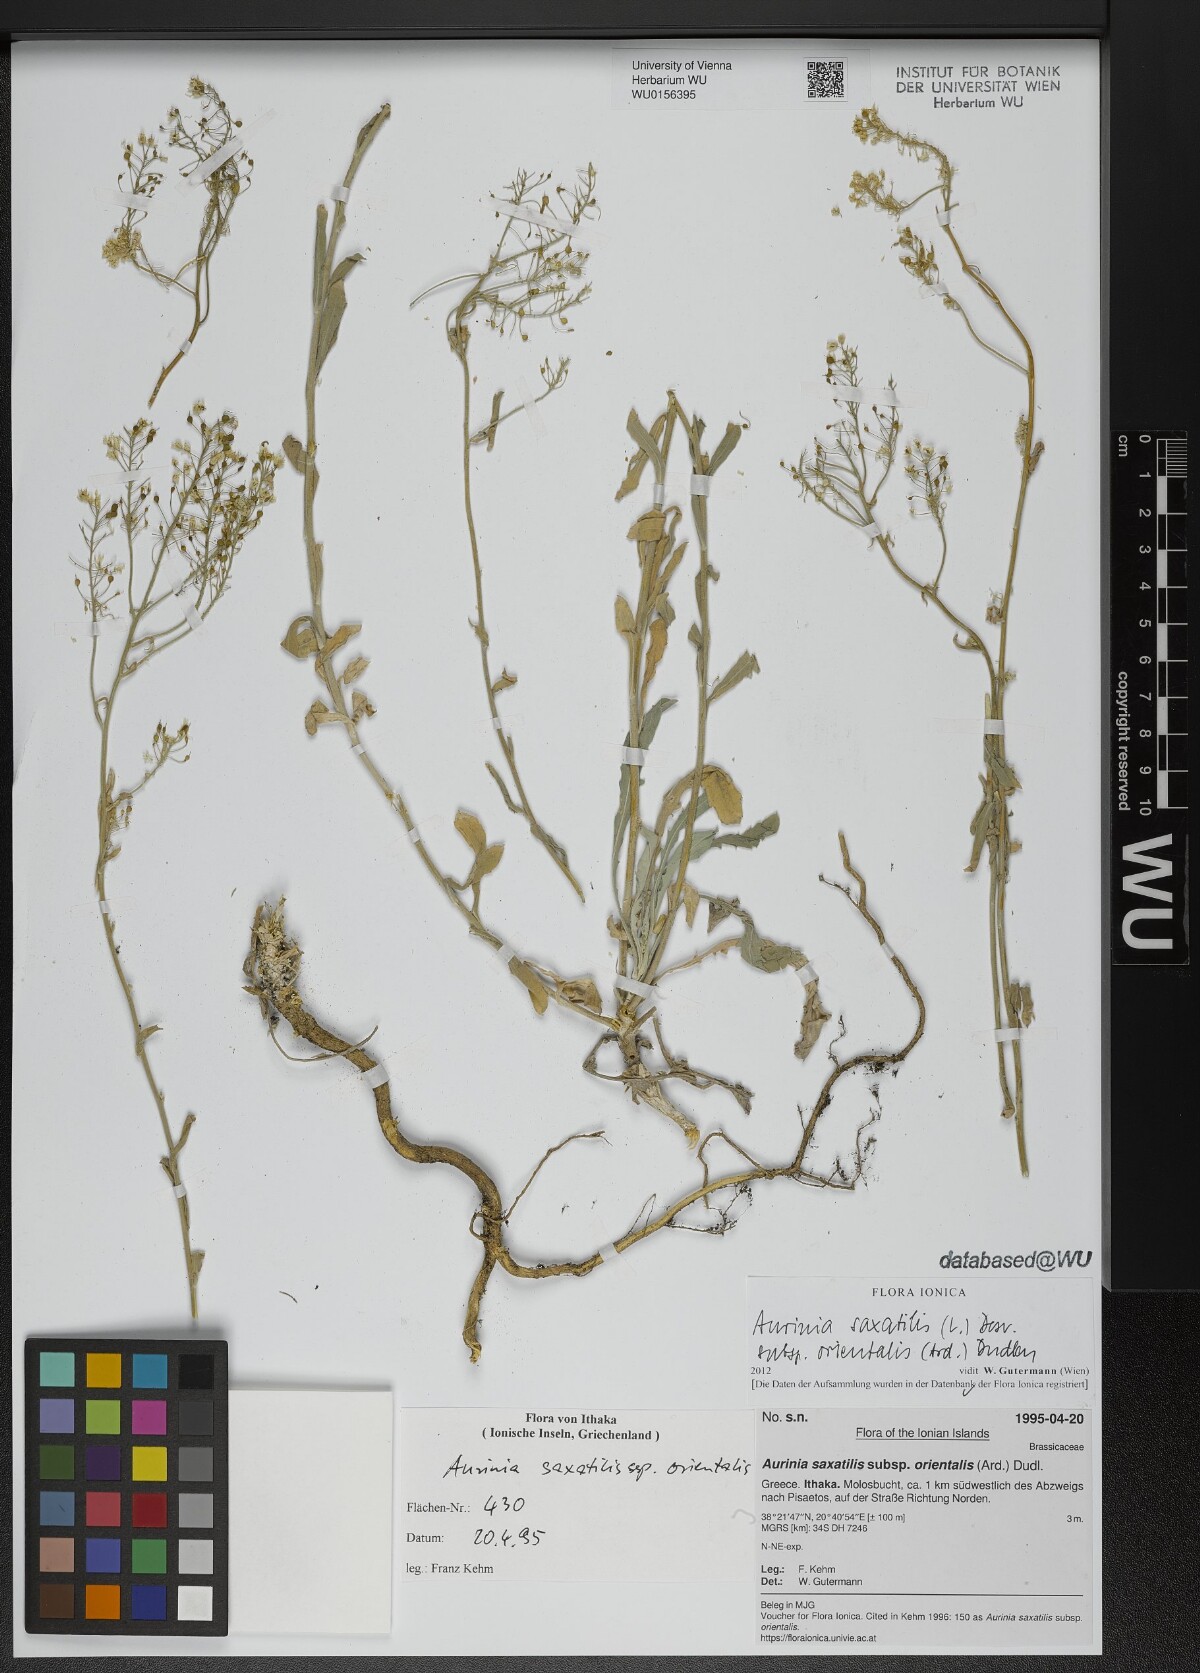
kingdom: Plantae
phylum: Tracheophyta
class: Magnoliopsida
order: Brassicales
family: Brassicaceae
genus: Aurinia
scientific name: Aurinia saxatilis
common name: Golden-tuft alyssum
